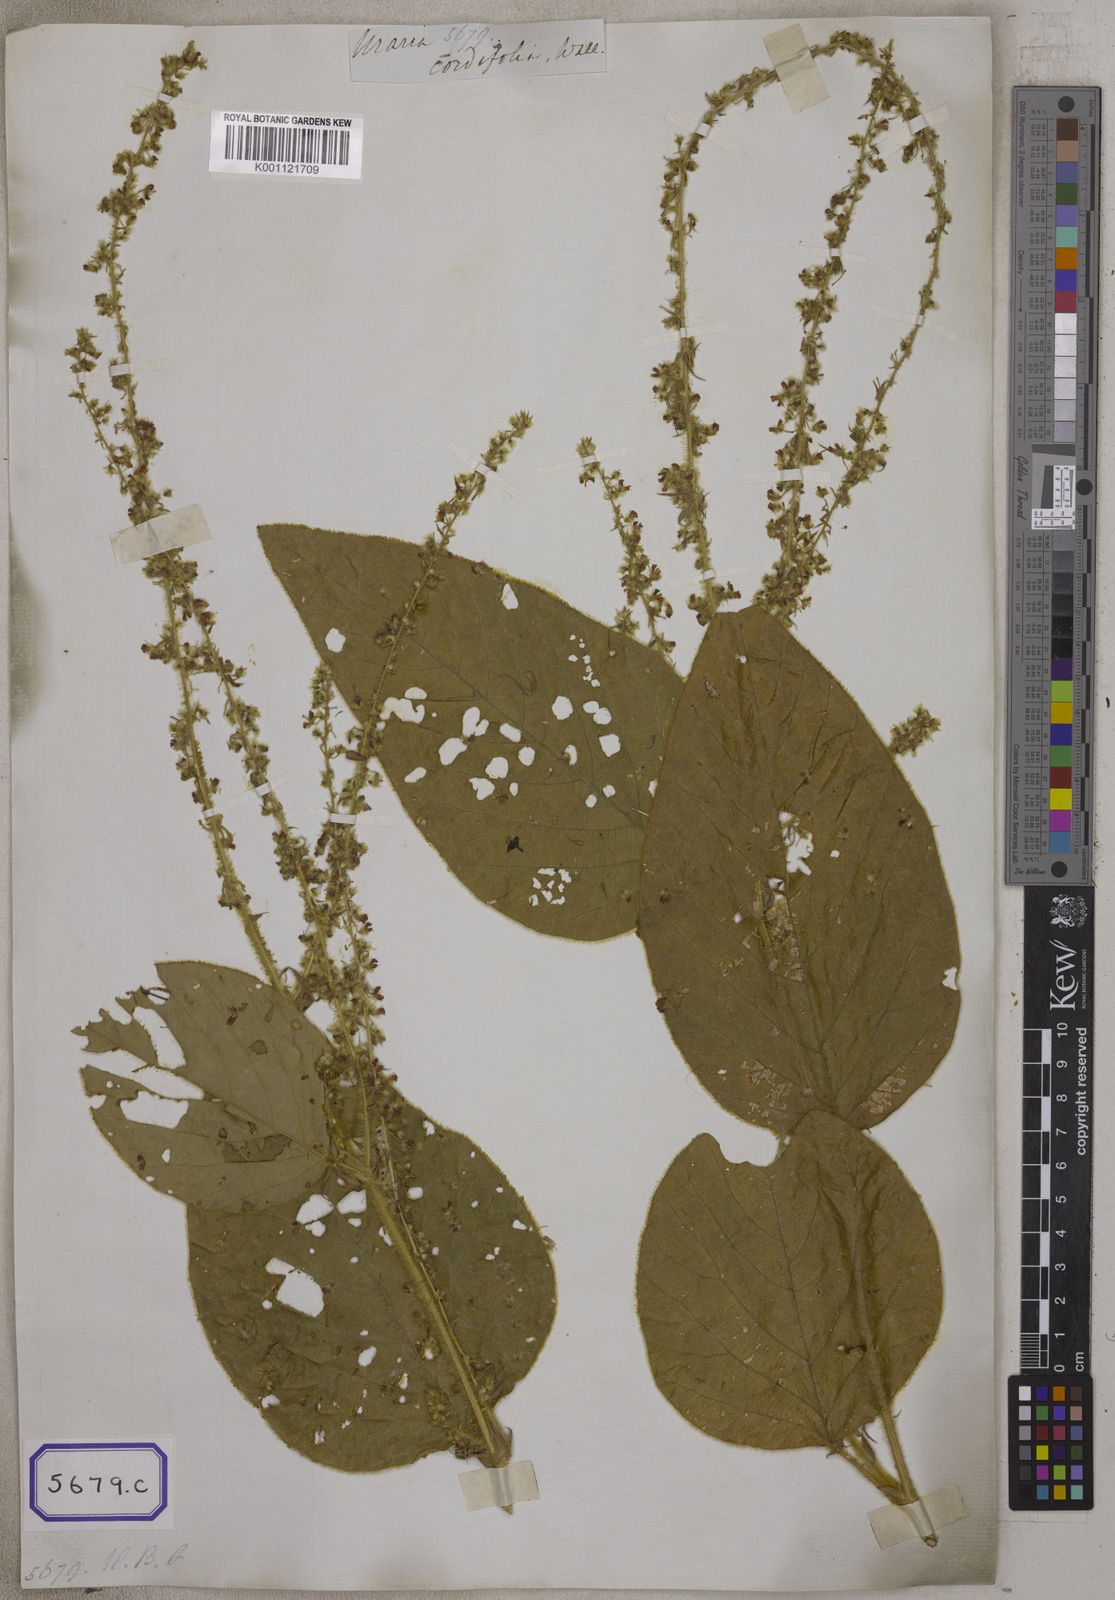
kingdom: Plantae
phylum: Tracheophyta
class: Magnoliopsida
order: Fabales
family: Fabaceae
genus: Uraria
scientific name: Uraria cordifolia
